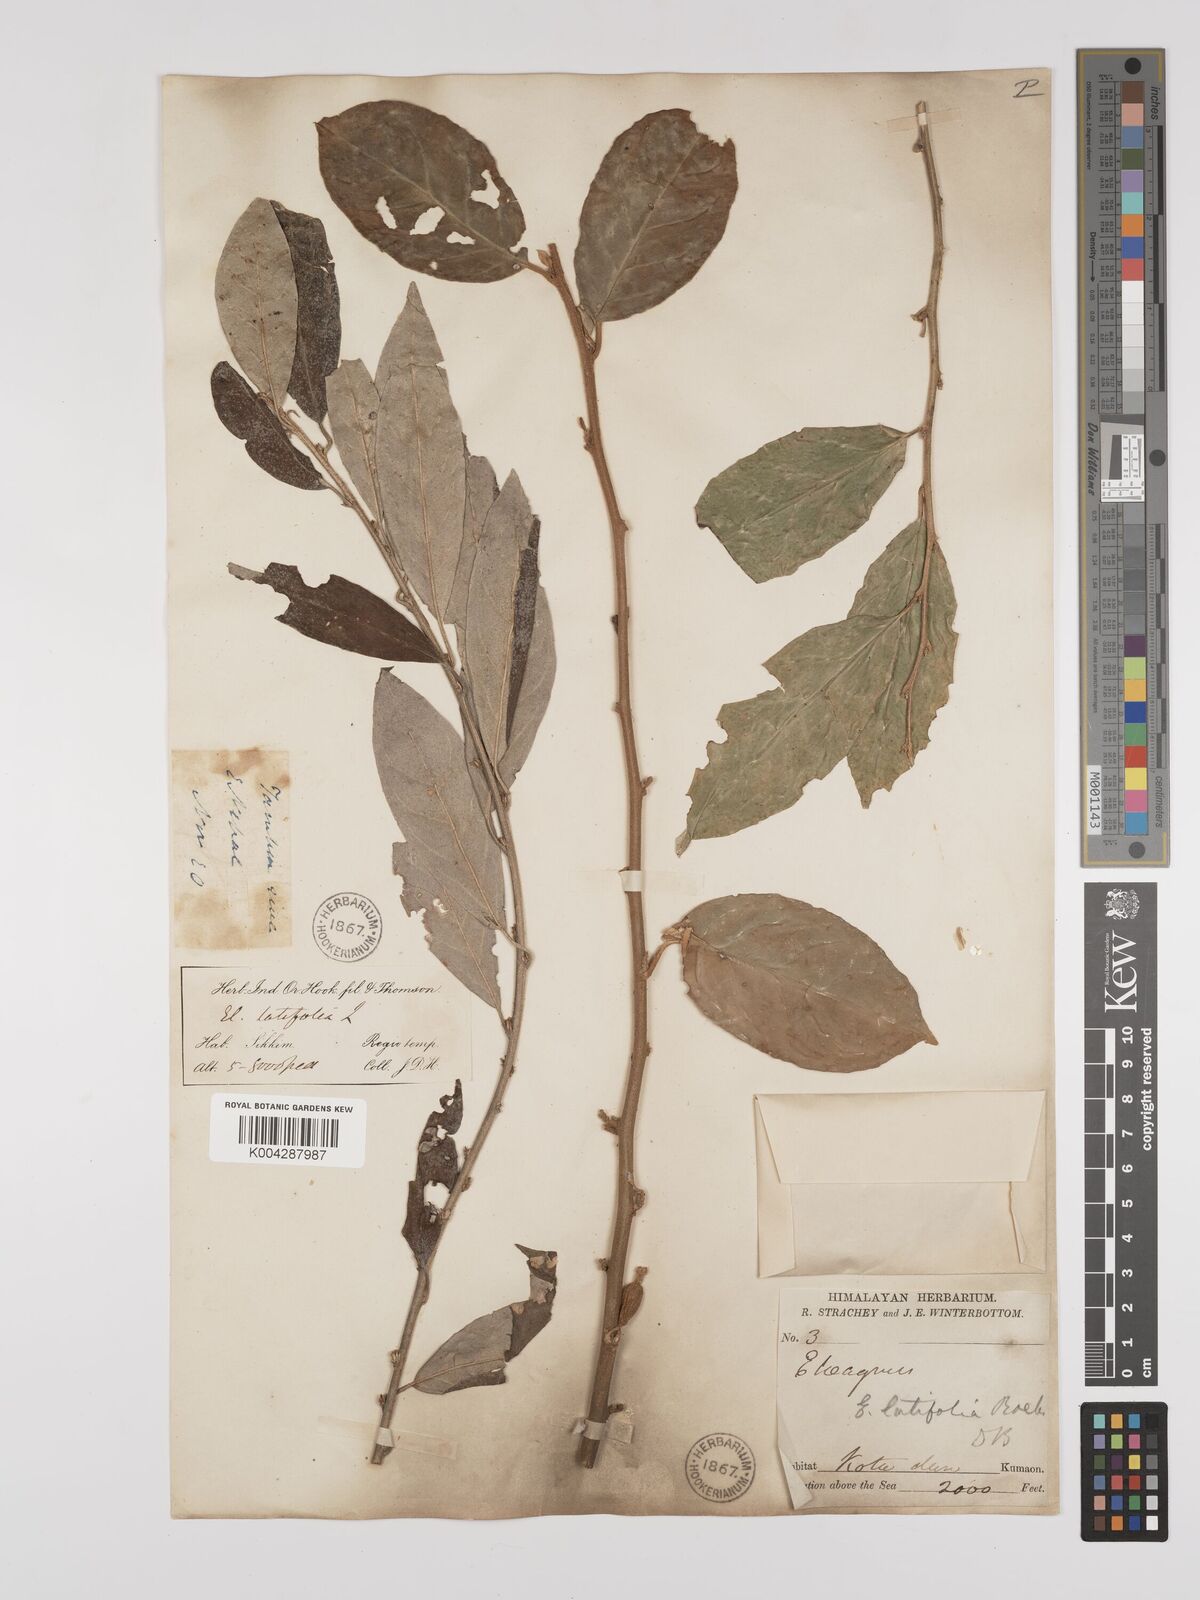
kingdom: Plantae
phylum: Tracheophyta
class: Magnoliopsida
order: Rosales
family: Elaeagnaceae
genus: Elaeagnus
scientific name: Elaeagnus latifolia
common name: Oleaster
